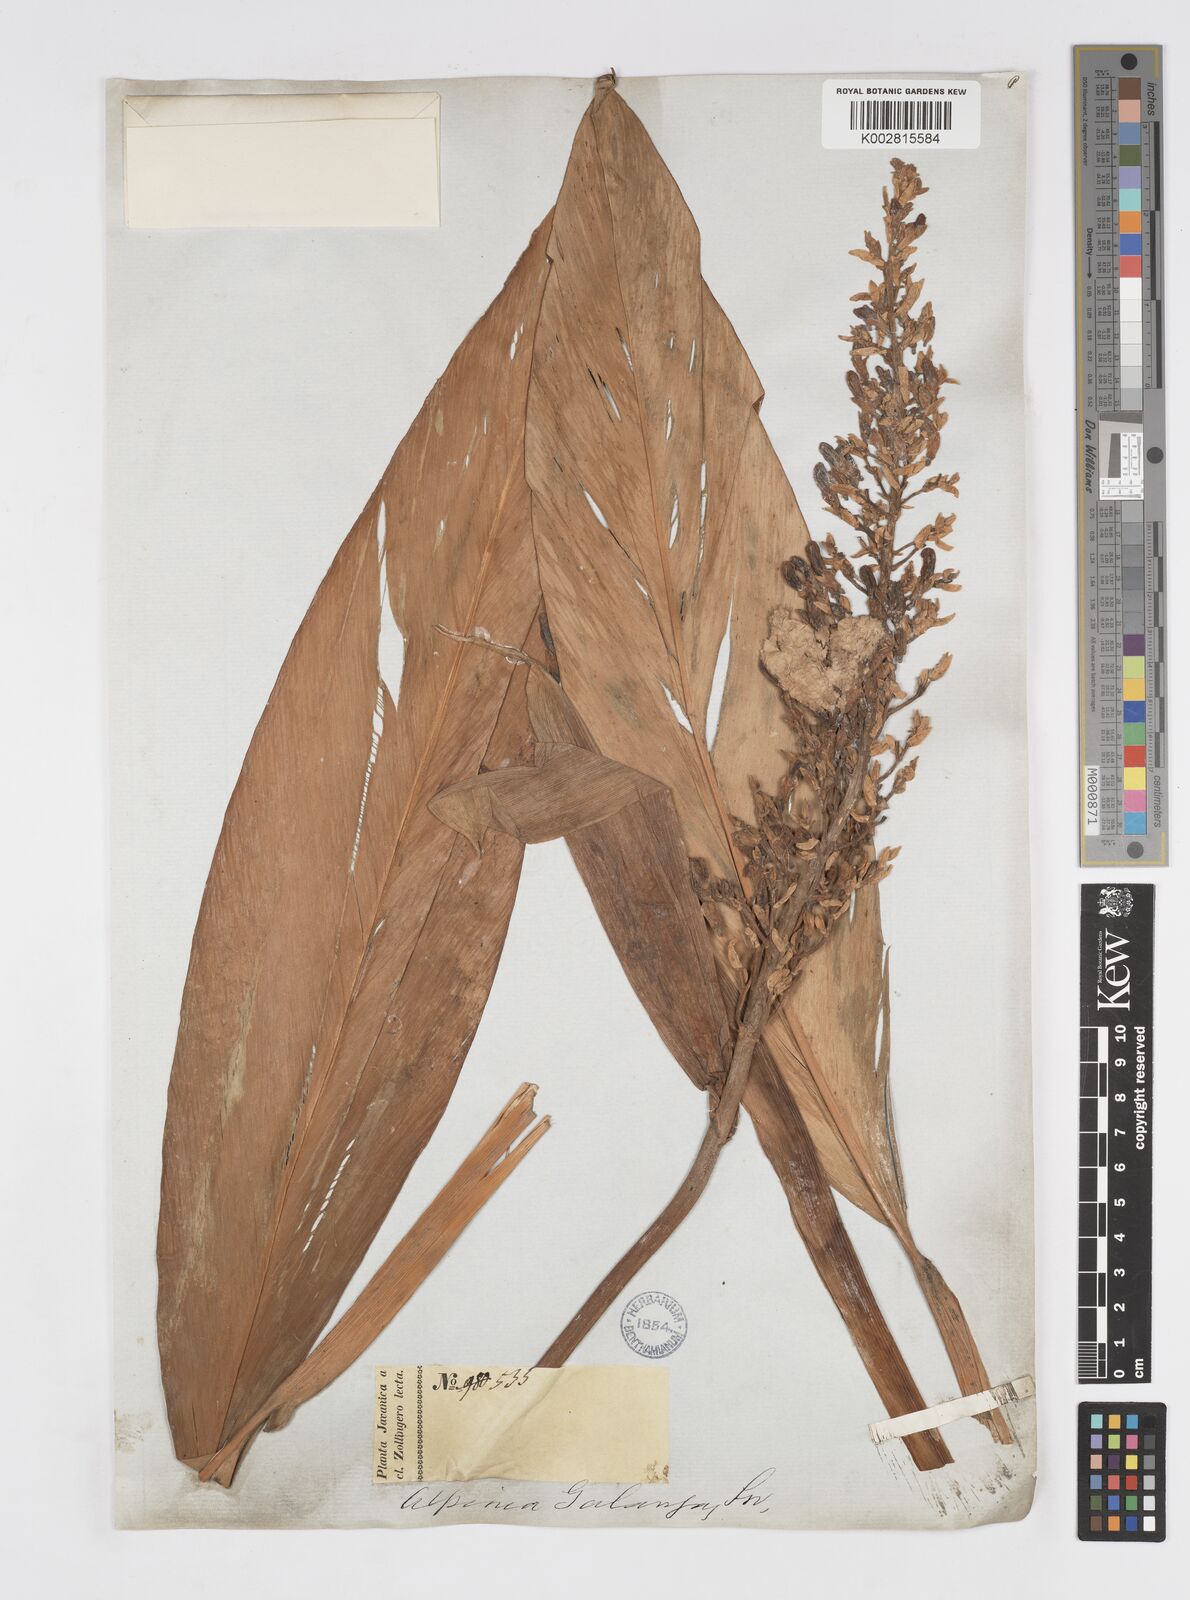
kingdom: Plantae
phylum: Tracheophyta
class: Liliopsida
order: Zingiberales
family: Zingiberaceae
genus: Alpinia
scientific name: Alpinia galanga
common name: Siamese-ginger
